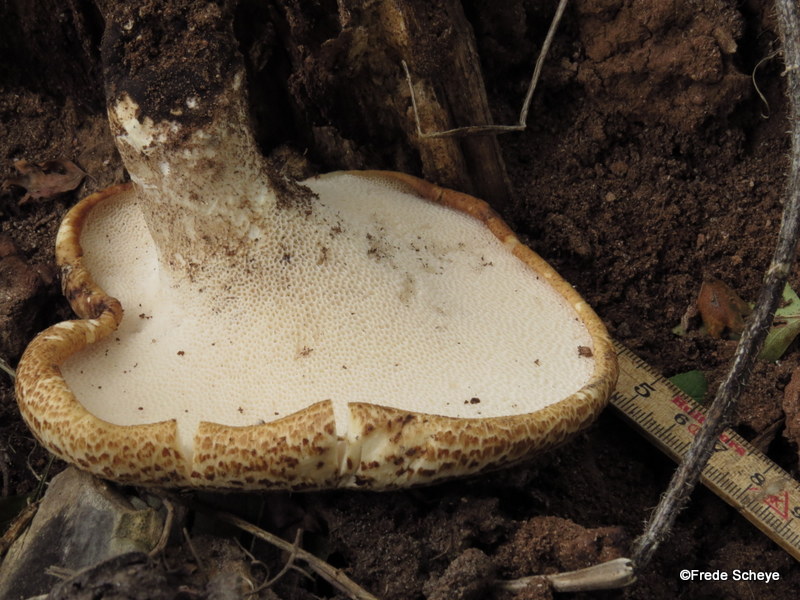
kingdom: Fungi
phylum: Basidiomycota
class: Agaricomycetes
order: Polyporales
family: Polyporaceae
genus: Cerioporus
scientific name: Cerioporus squamosus
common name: skællet stilkporesvamp
